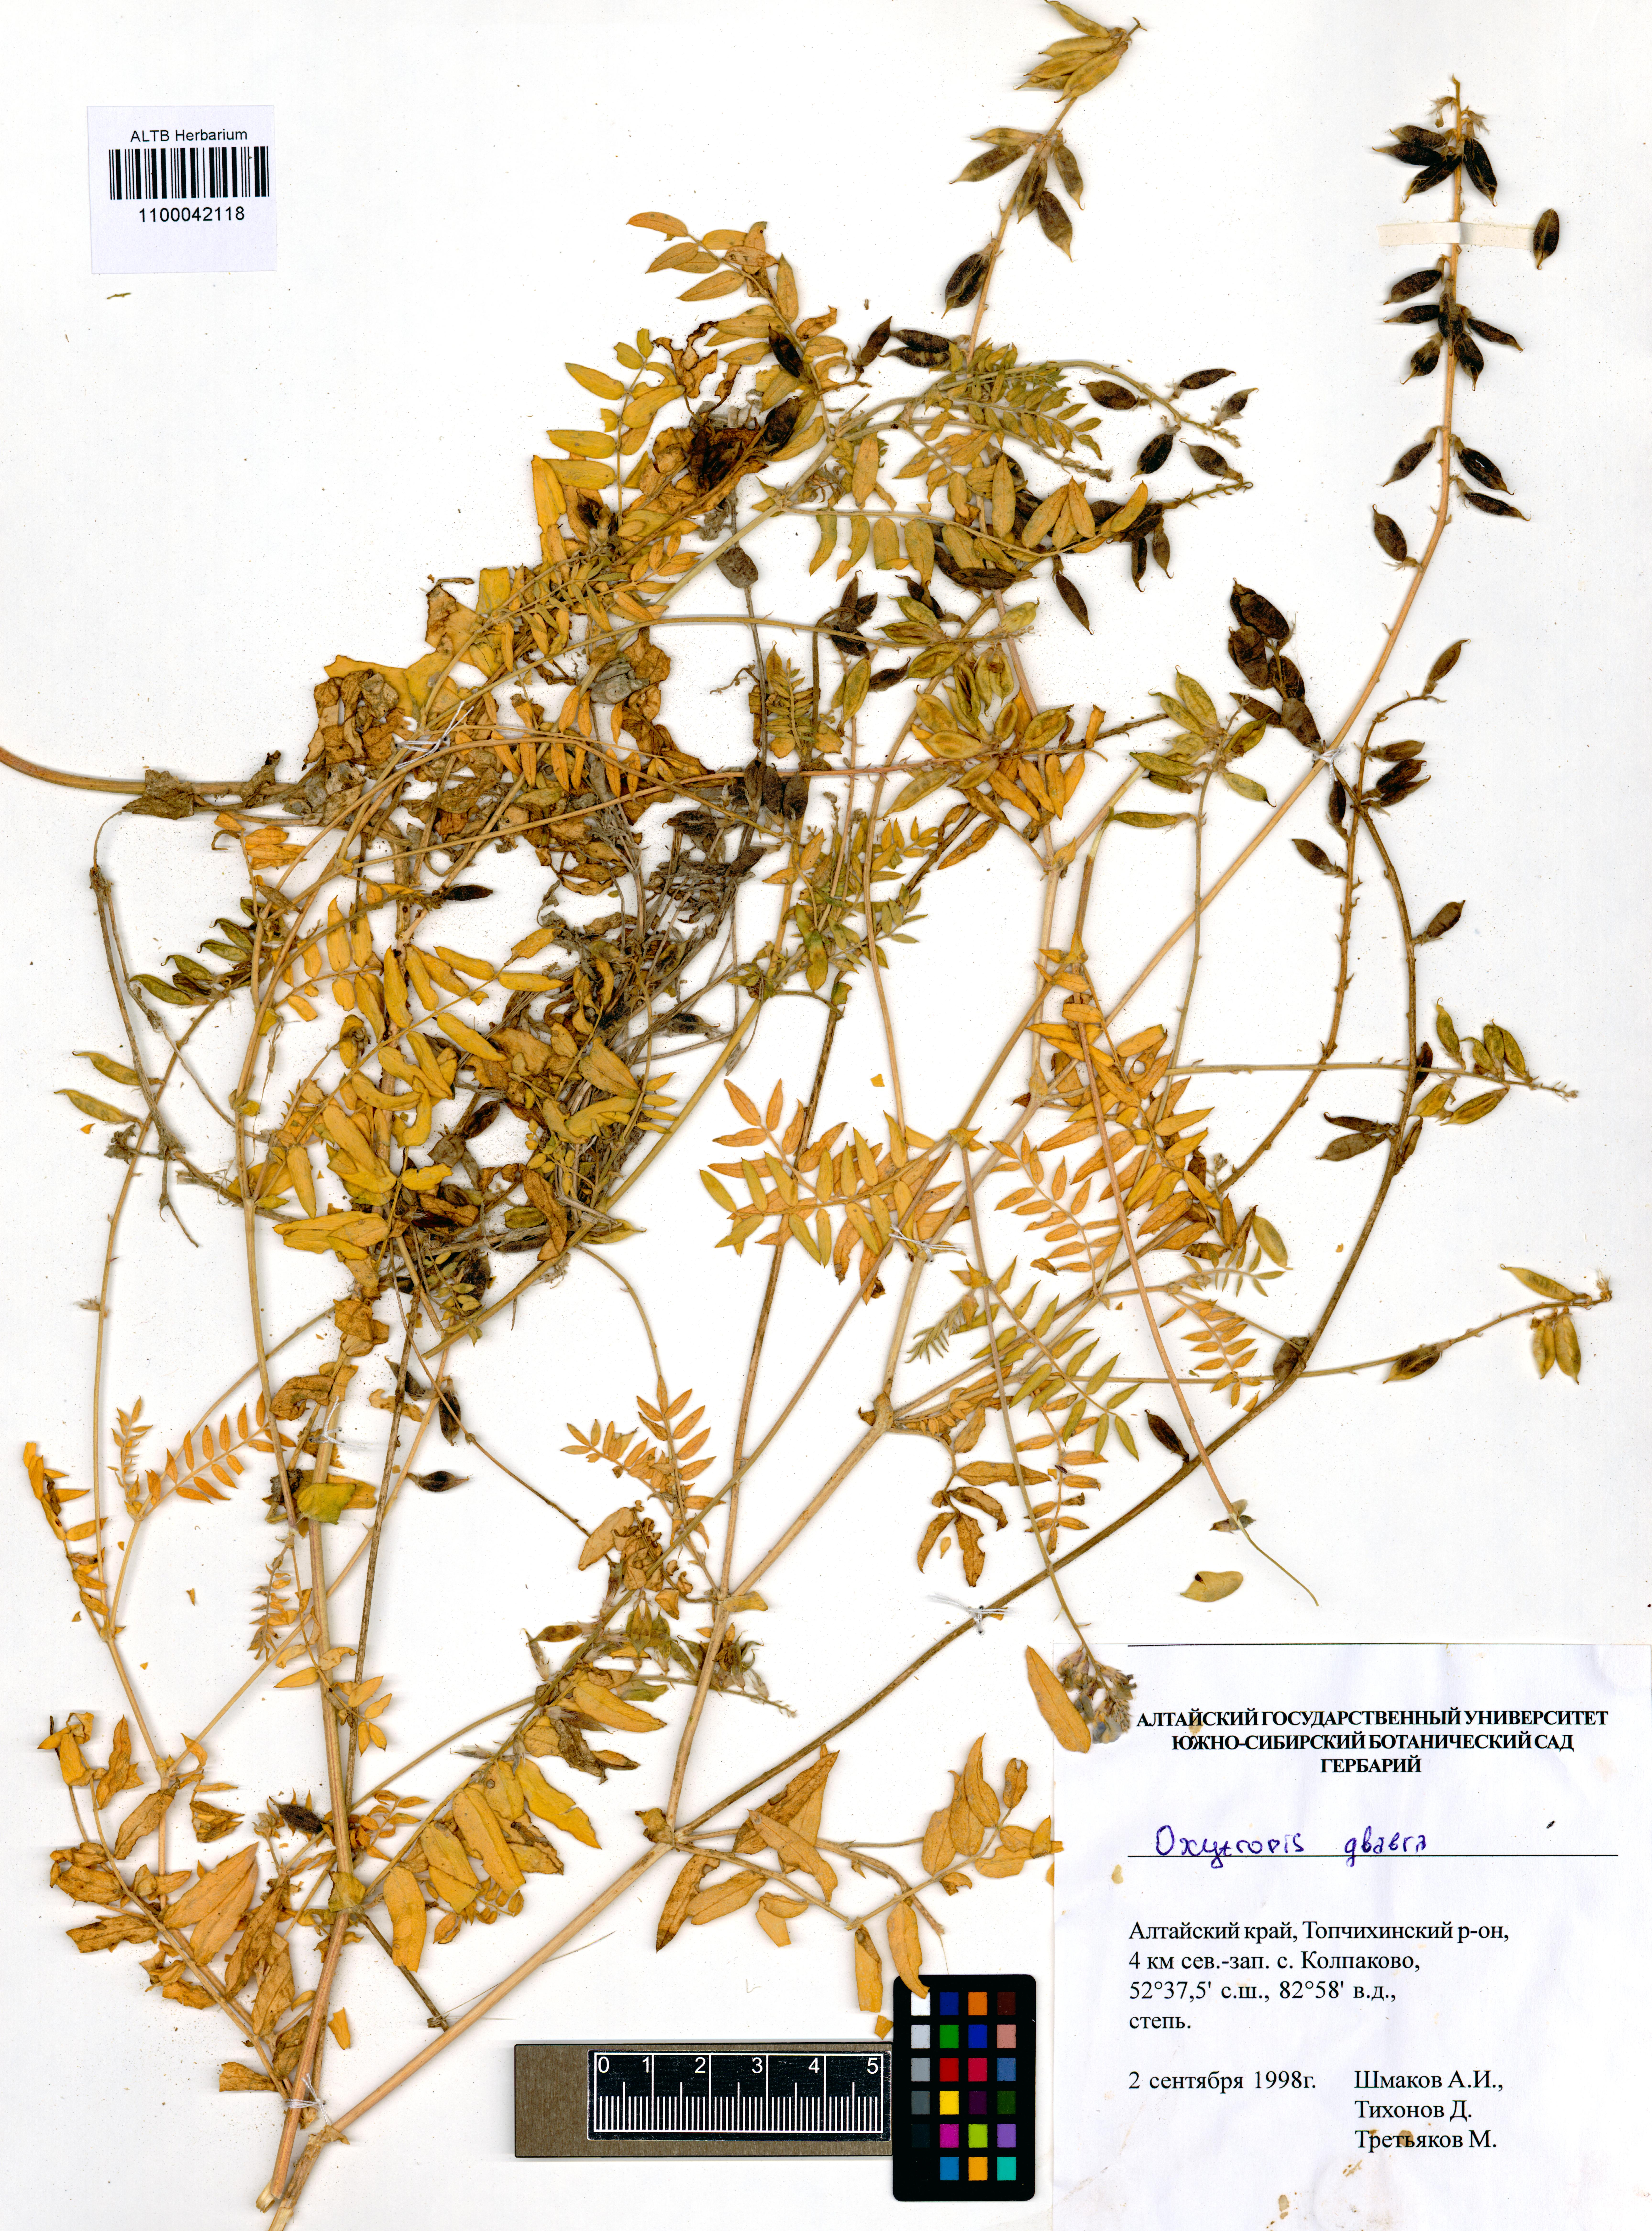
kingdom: Plantae
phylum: Tracheophyta
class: Magnoliopsida
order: Fabales
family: Fabaceae
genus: Oxytropis
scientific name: Oxytropis glabra
